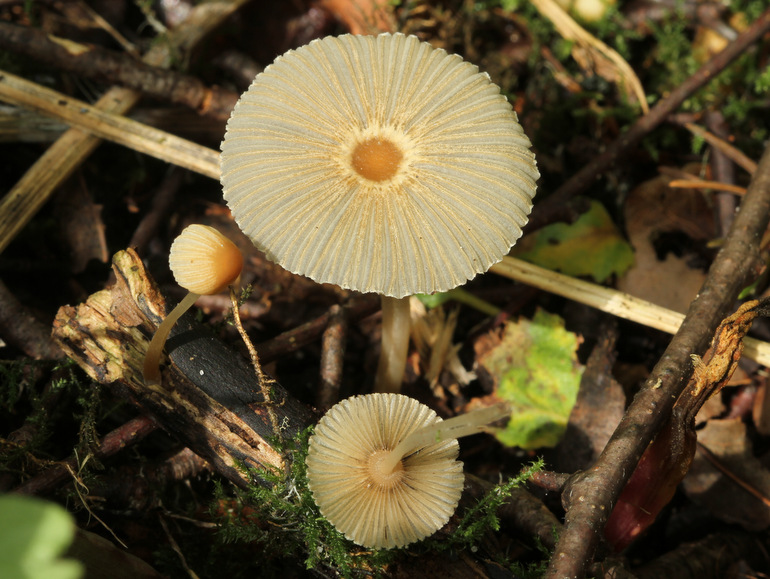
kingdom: Fungi
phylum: Basidiomycota
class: Agaricomycetes
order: Agaricales
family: Psathyrellaceae
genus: Parasola
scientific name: Parasola lactea
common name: glat hjulhat
